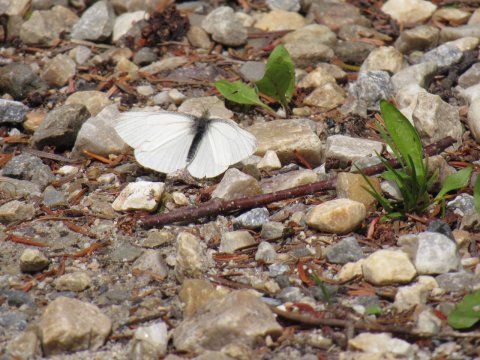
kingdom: Animalia
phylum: Arthropoda
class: Insecta
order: Lepidoptera
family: Pieridae
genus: Pieris
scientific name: Pieris virginiensis
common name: West Virginia White
